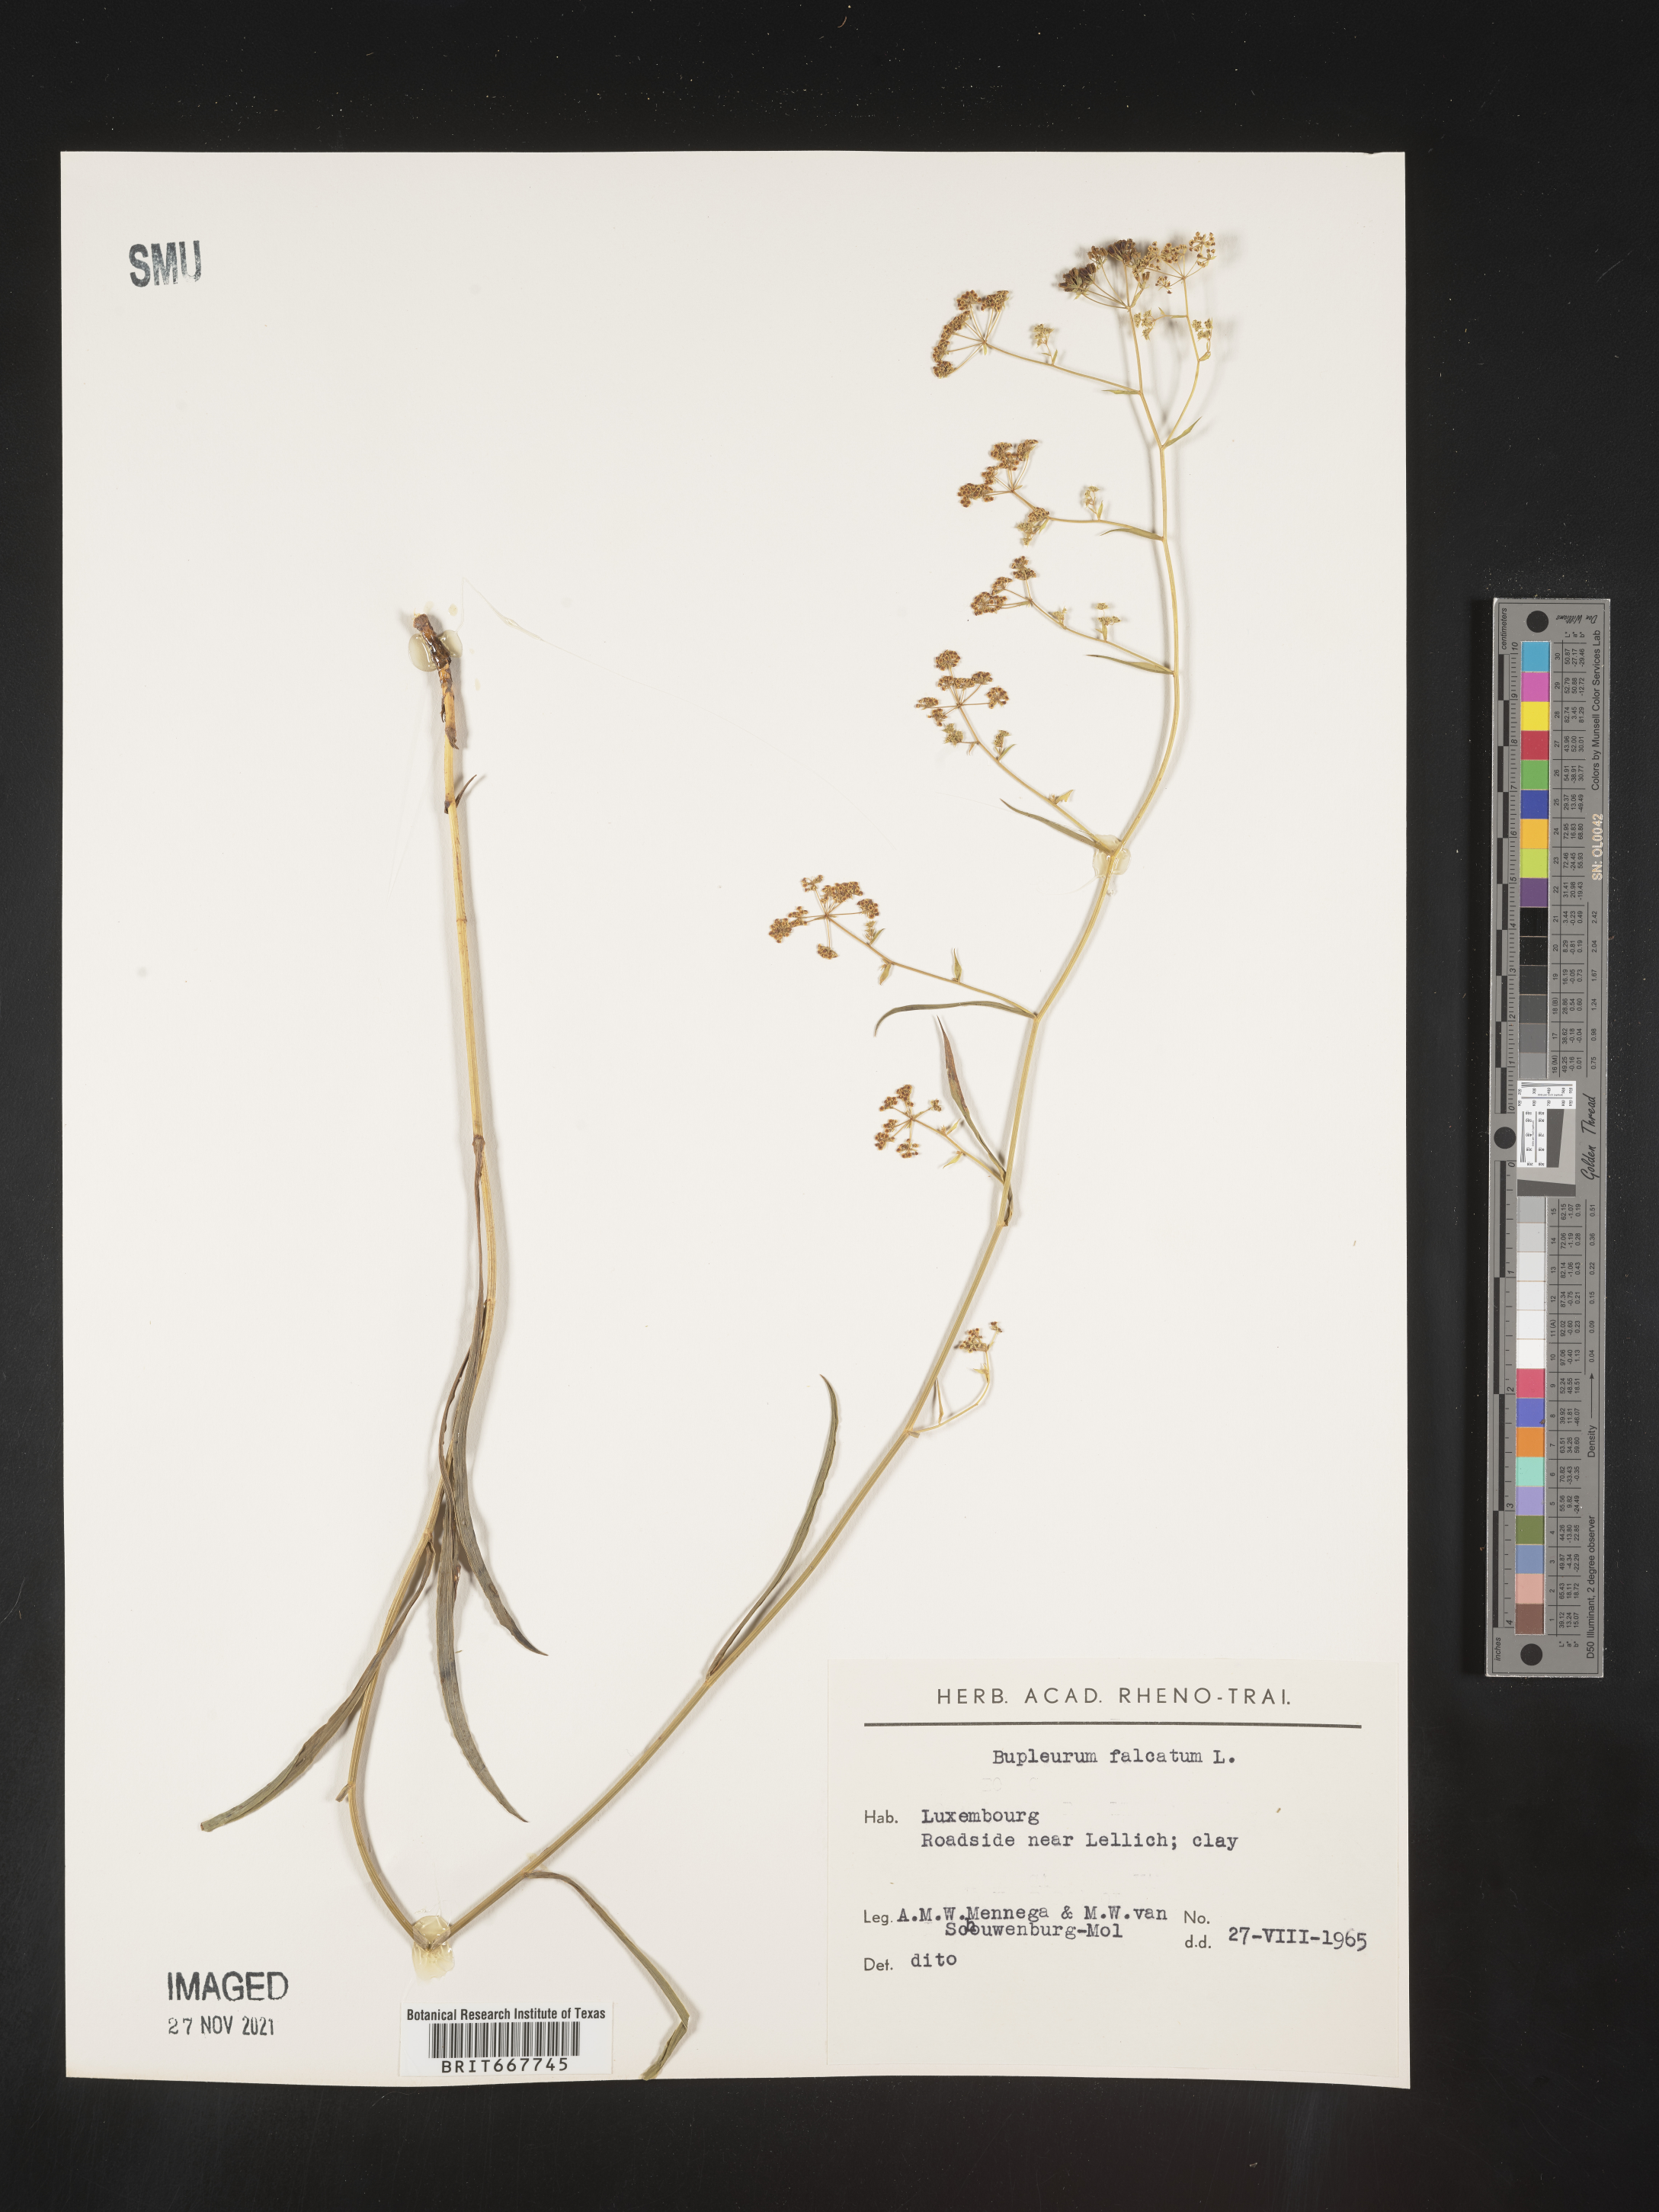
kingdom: Plantae
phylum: Tracheophyta
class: Magnoliopsida
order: Apiales
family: Apiaceae
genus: Bupleurum
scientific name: Bupleurum
